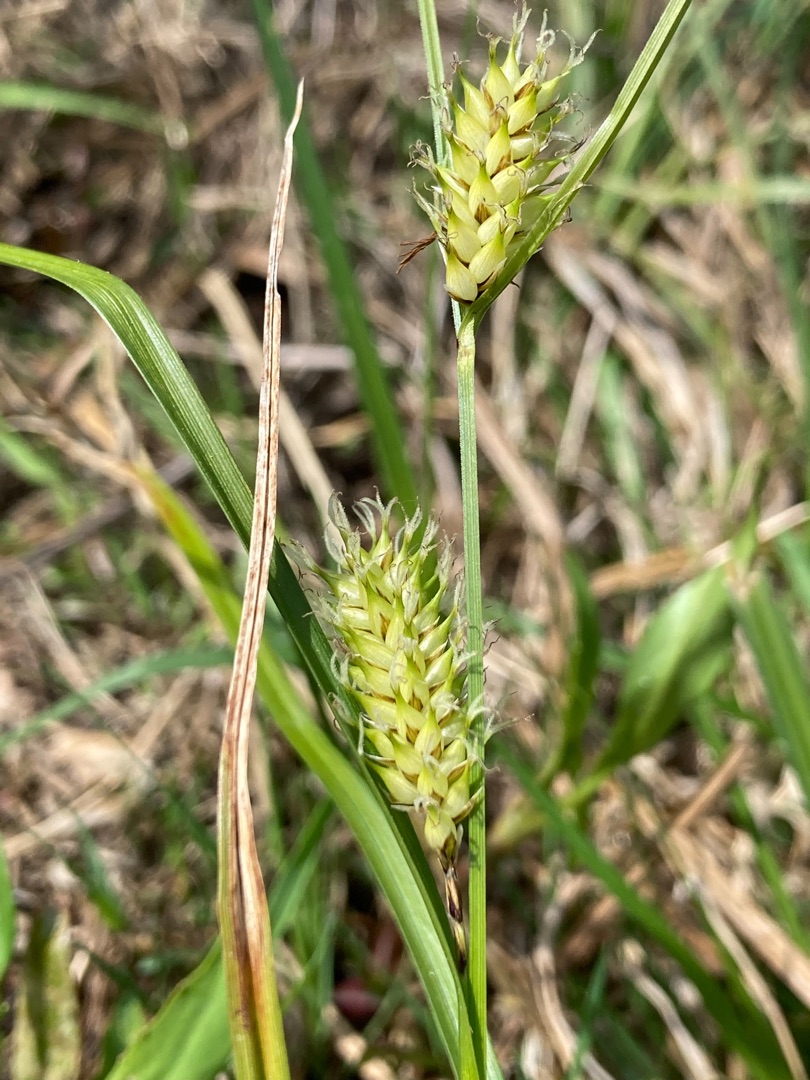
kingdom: Plantae
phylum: Tracheophyta
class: Liliopsida
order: Poales
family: Cyperaceae
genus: Carex
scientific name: Carex vesicaria
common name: Blære-star
